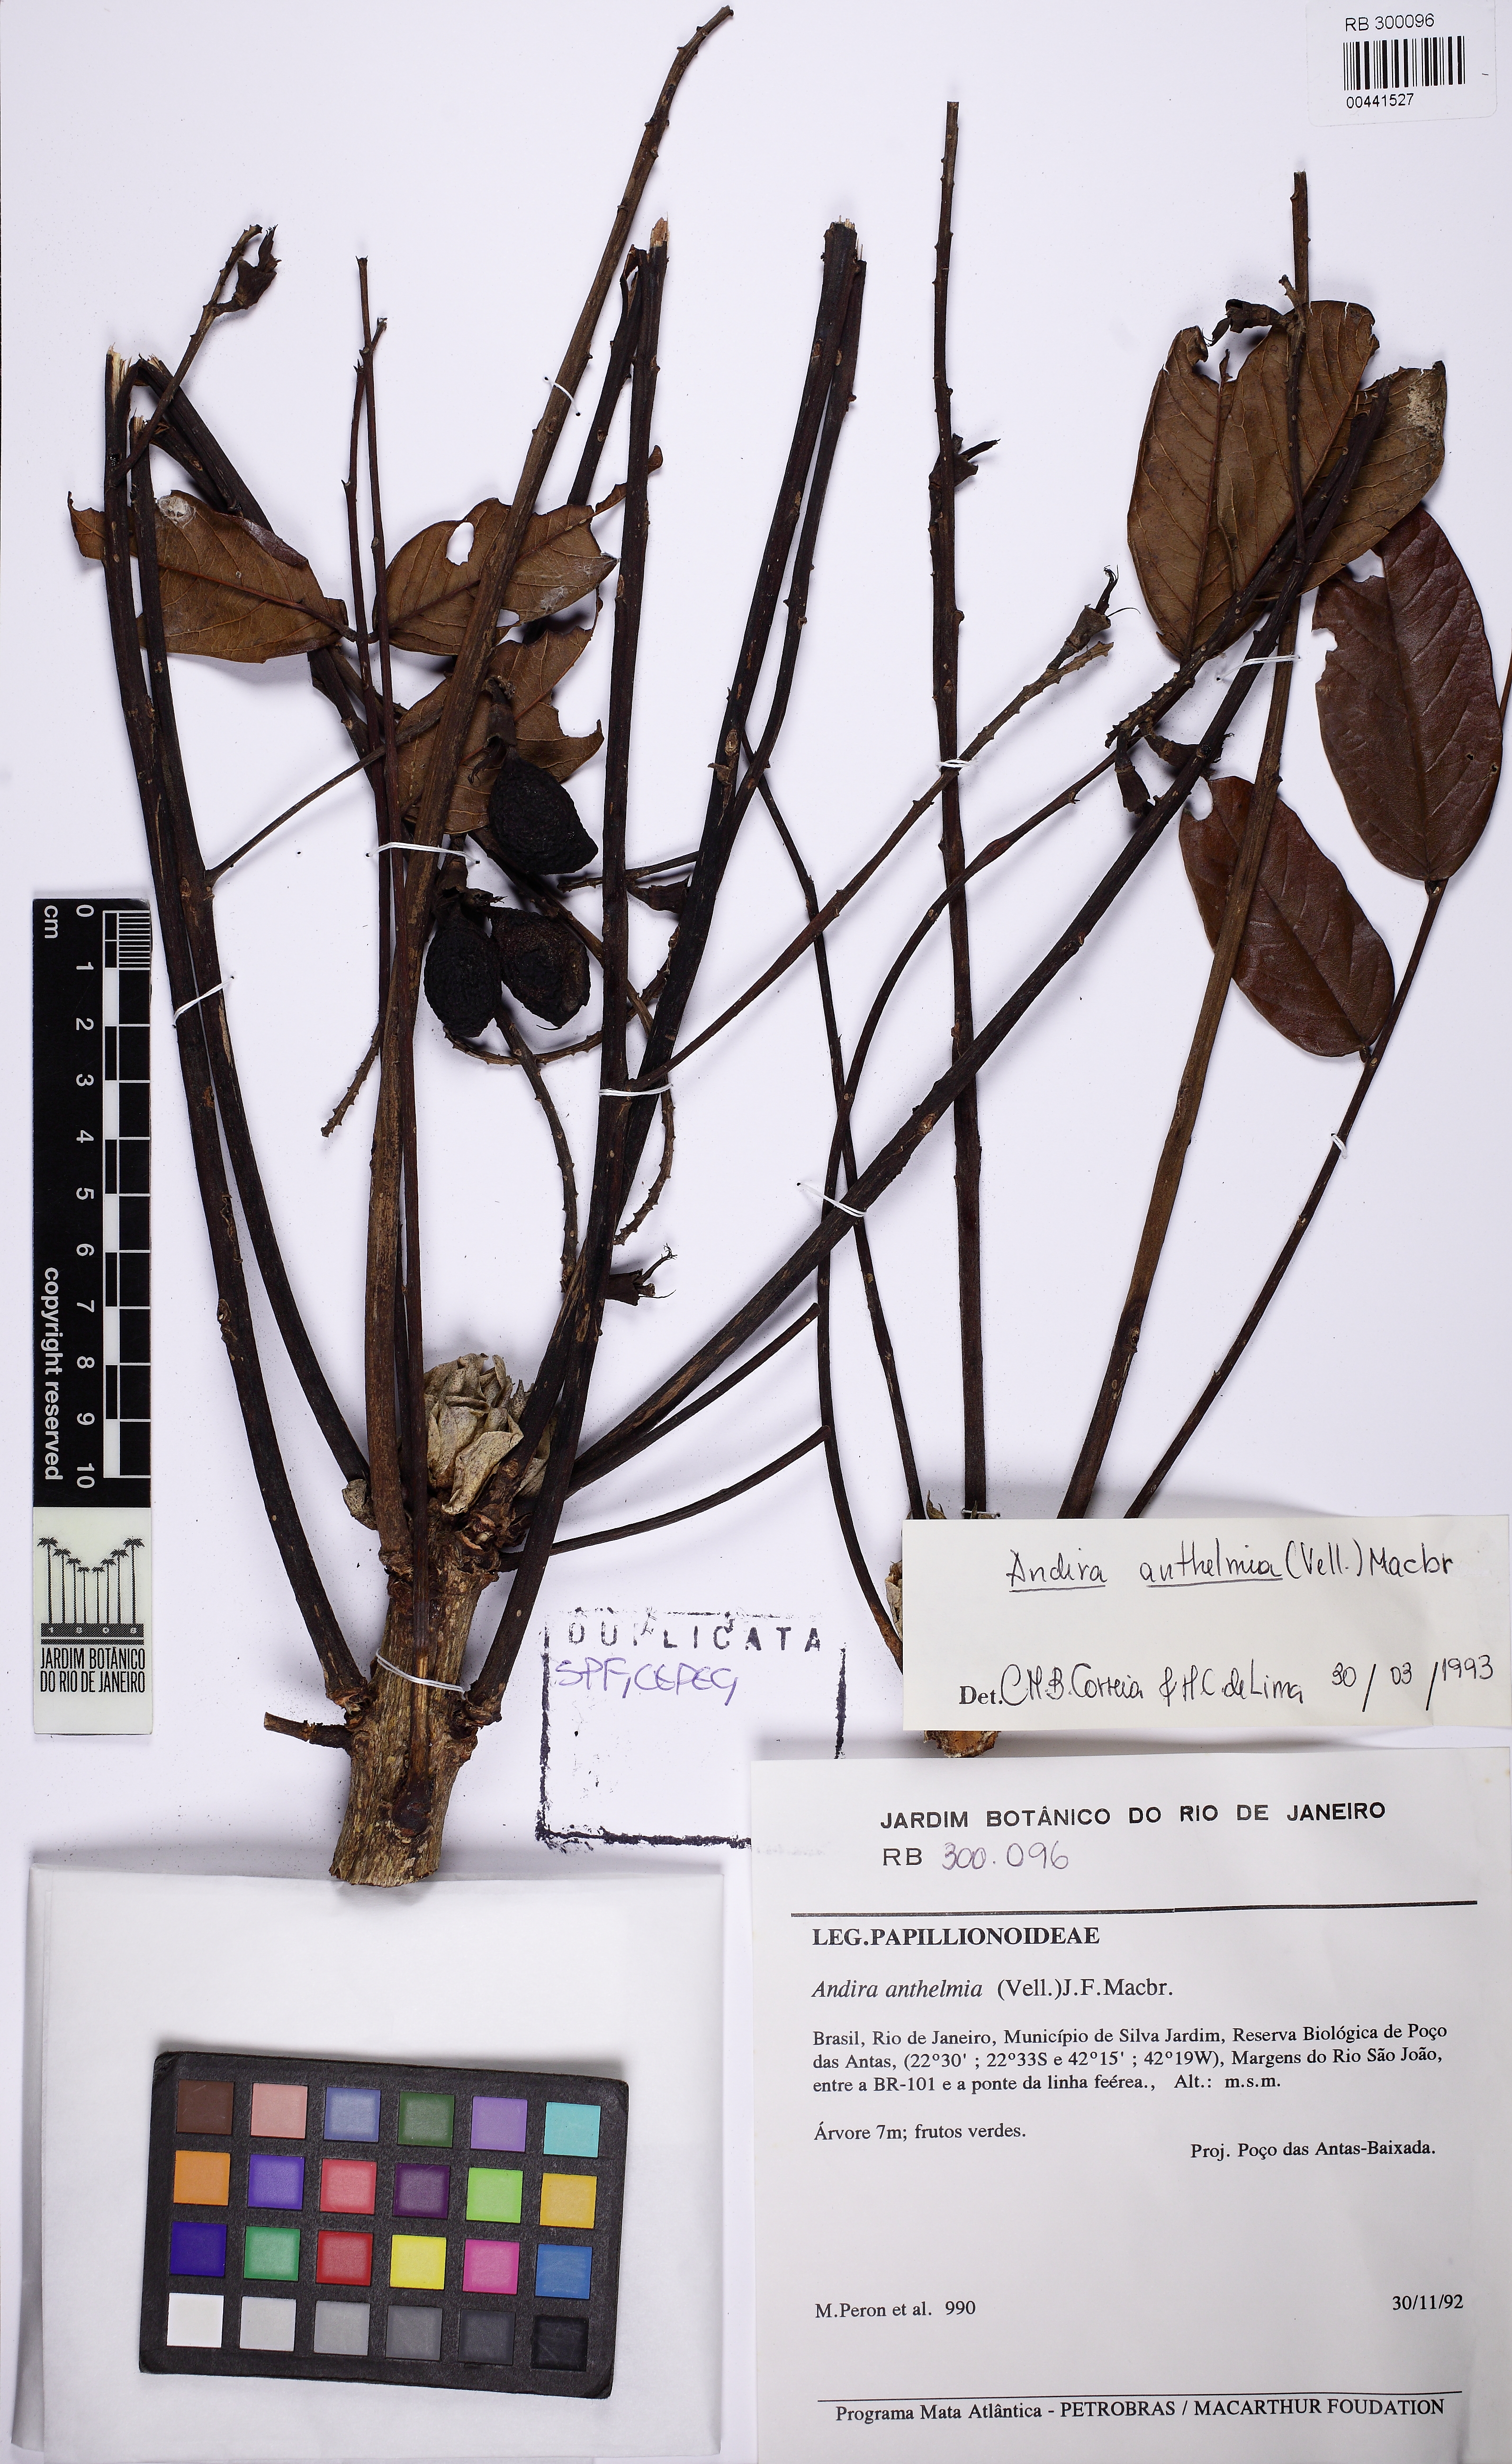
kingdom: Plantae
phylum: Tracheophyta
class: Magnoliopsida
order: Fabales
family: Fabaceae
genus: Andira
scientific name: Andira anthelmia
